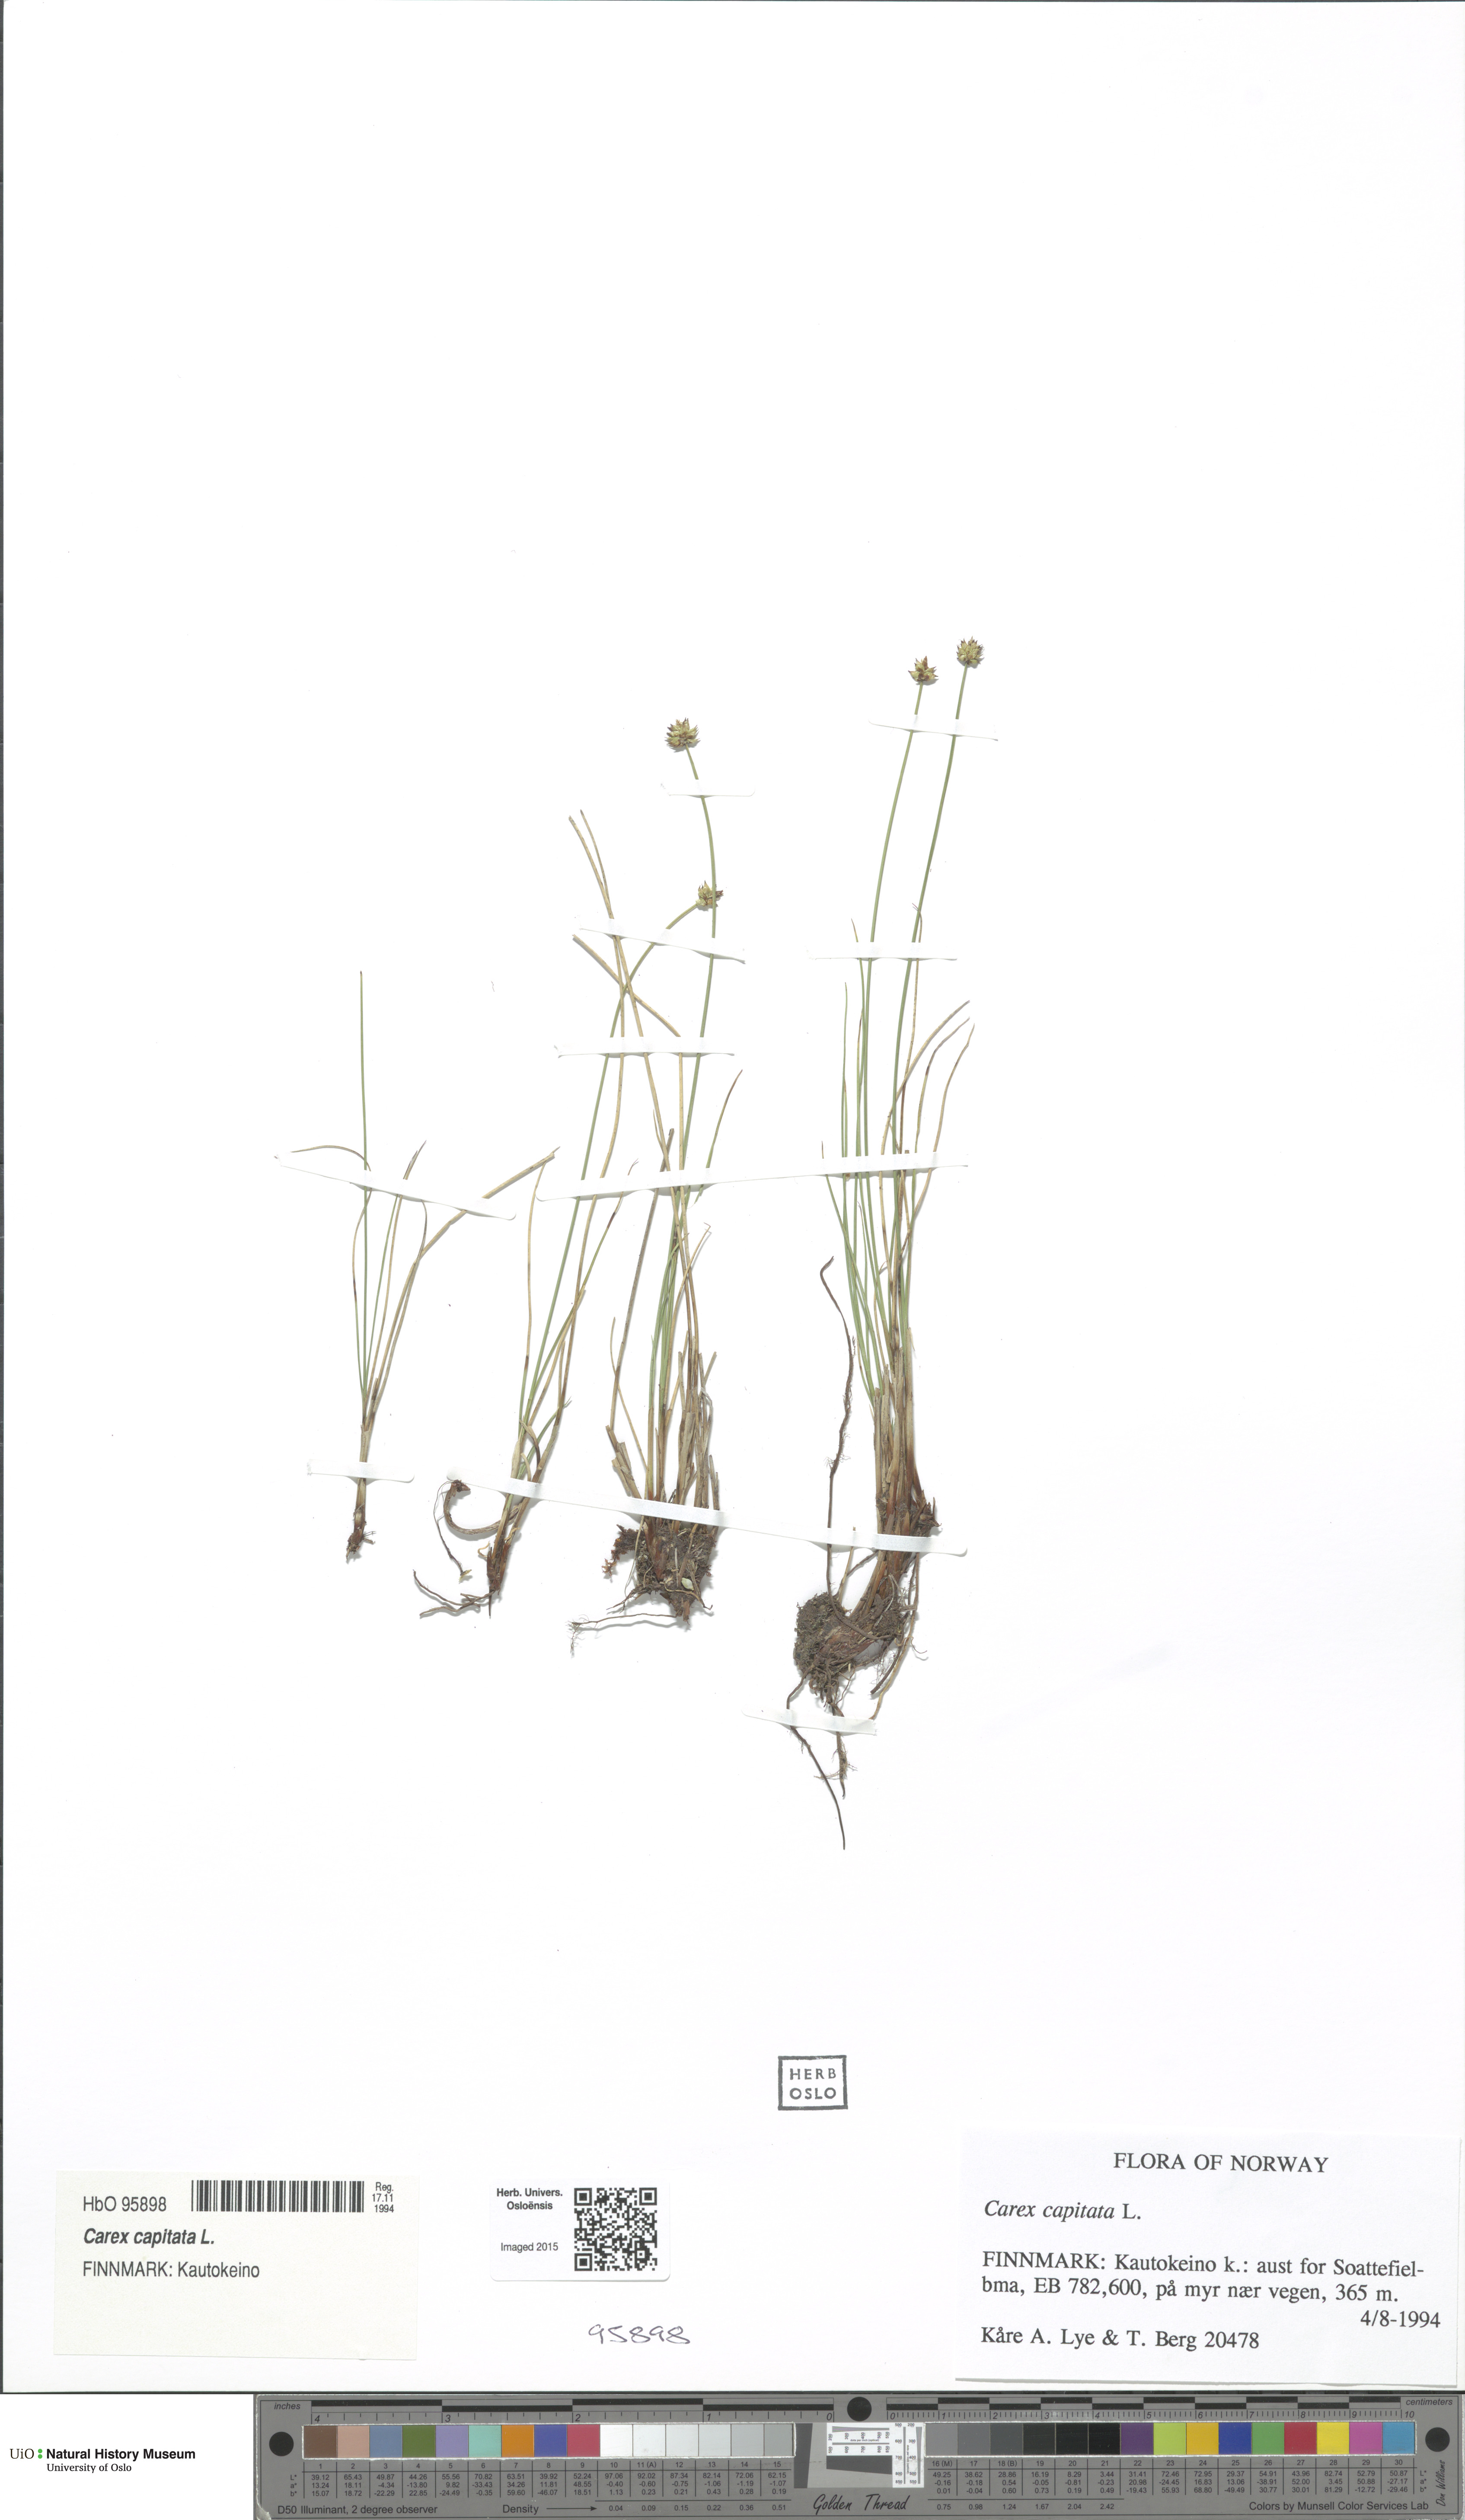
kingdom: Plantae
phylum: Tracheophyta
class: Liliopsida
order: Poales
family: Cyperaceae
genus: Carex
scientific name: Carex capitata
